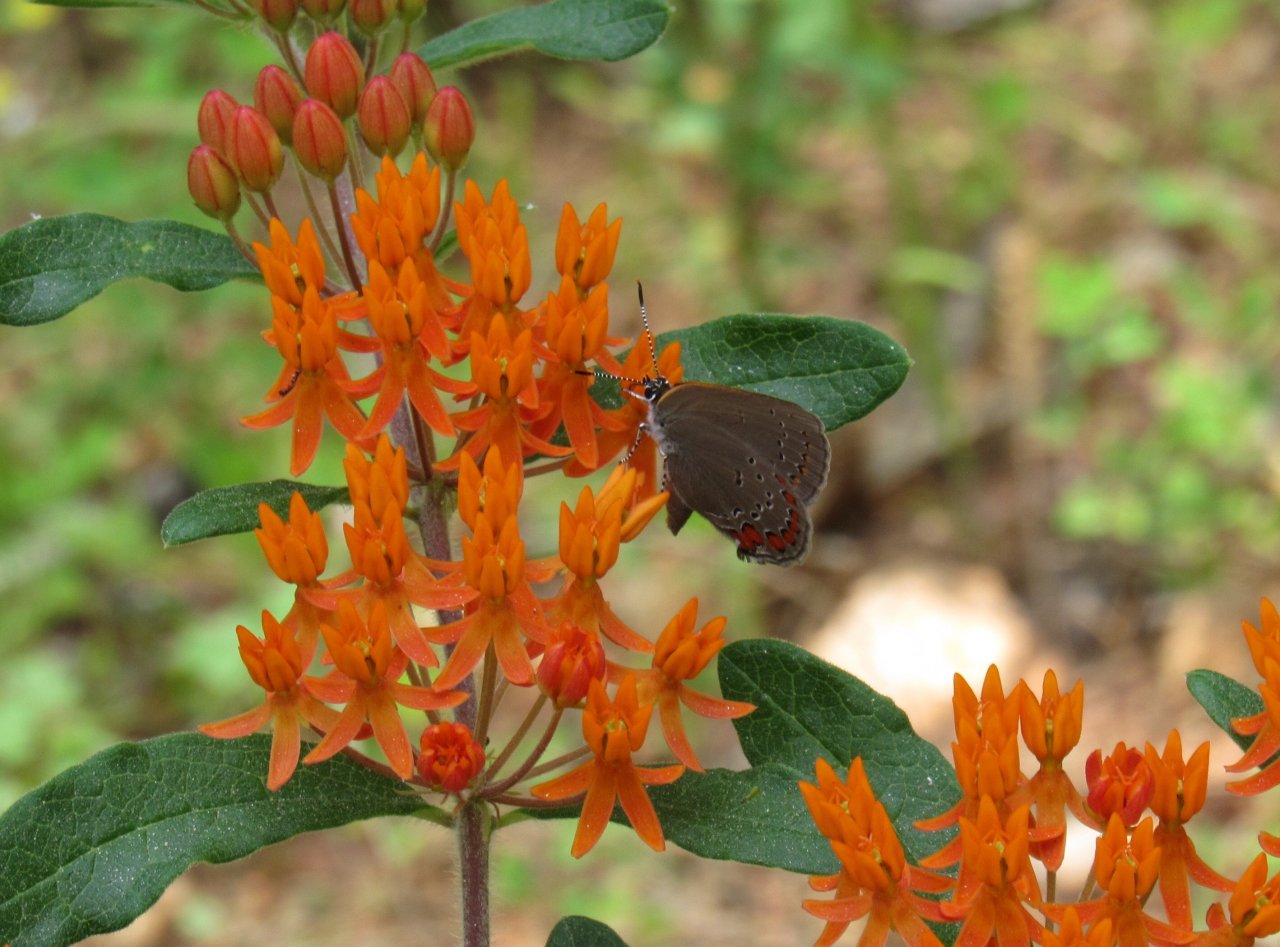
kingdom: Animalia
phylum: Arthropoda
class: Insecta
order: Lepidoptera
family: Lycaenidae
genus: Harkenclenus
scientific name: Harkenclenus titus
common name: Coral Hairstreak
